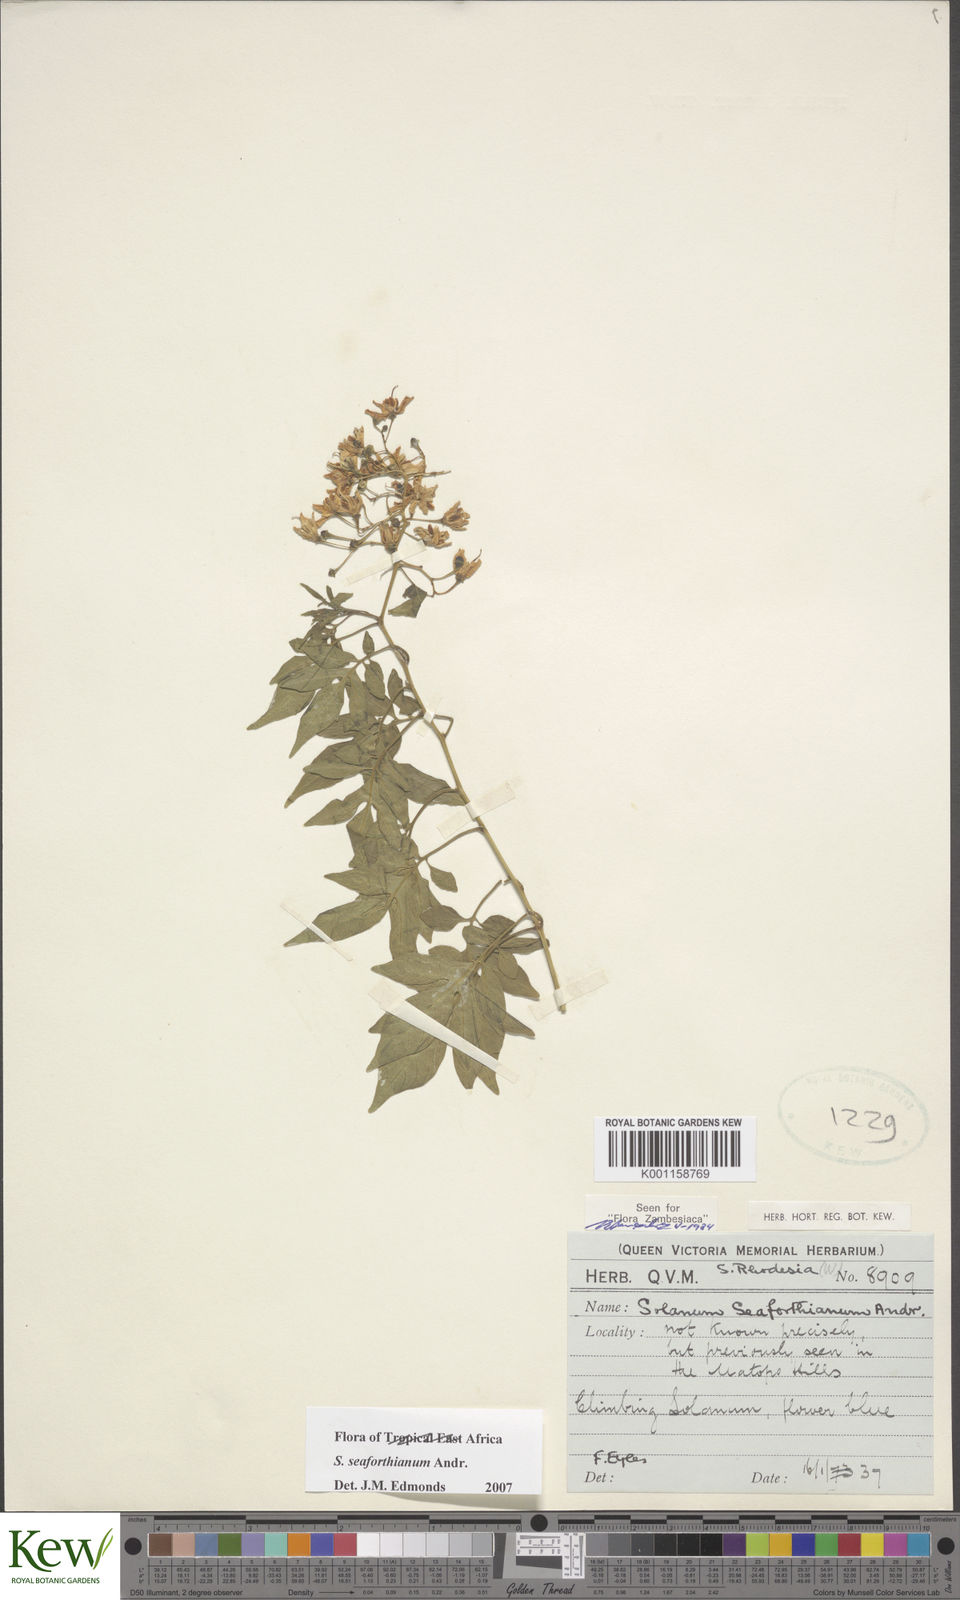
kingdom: Plantae
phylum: Tracheophyta
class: Magnoliopsida
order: Solanales
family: Solanaceae
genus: Solanum
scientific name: Solanum seaforthianum
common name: Brazilian nightshade
